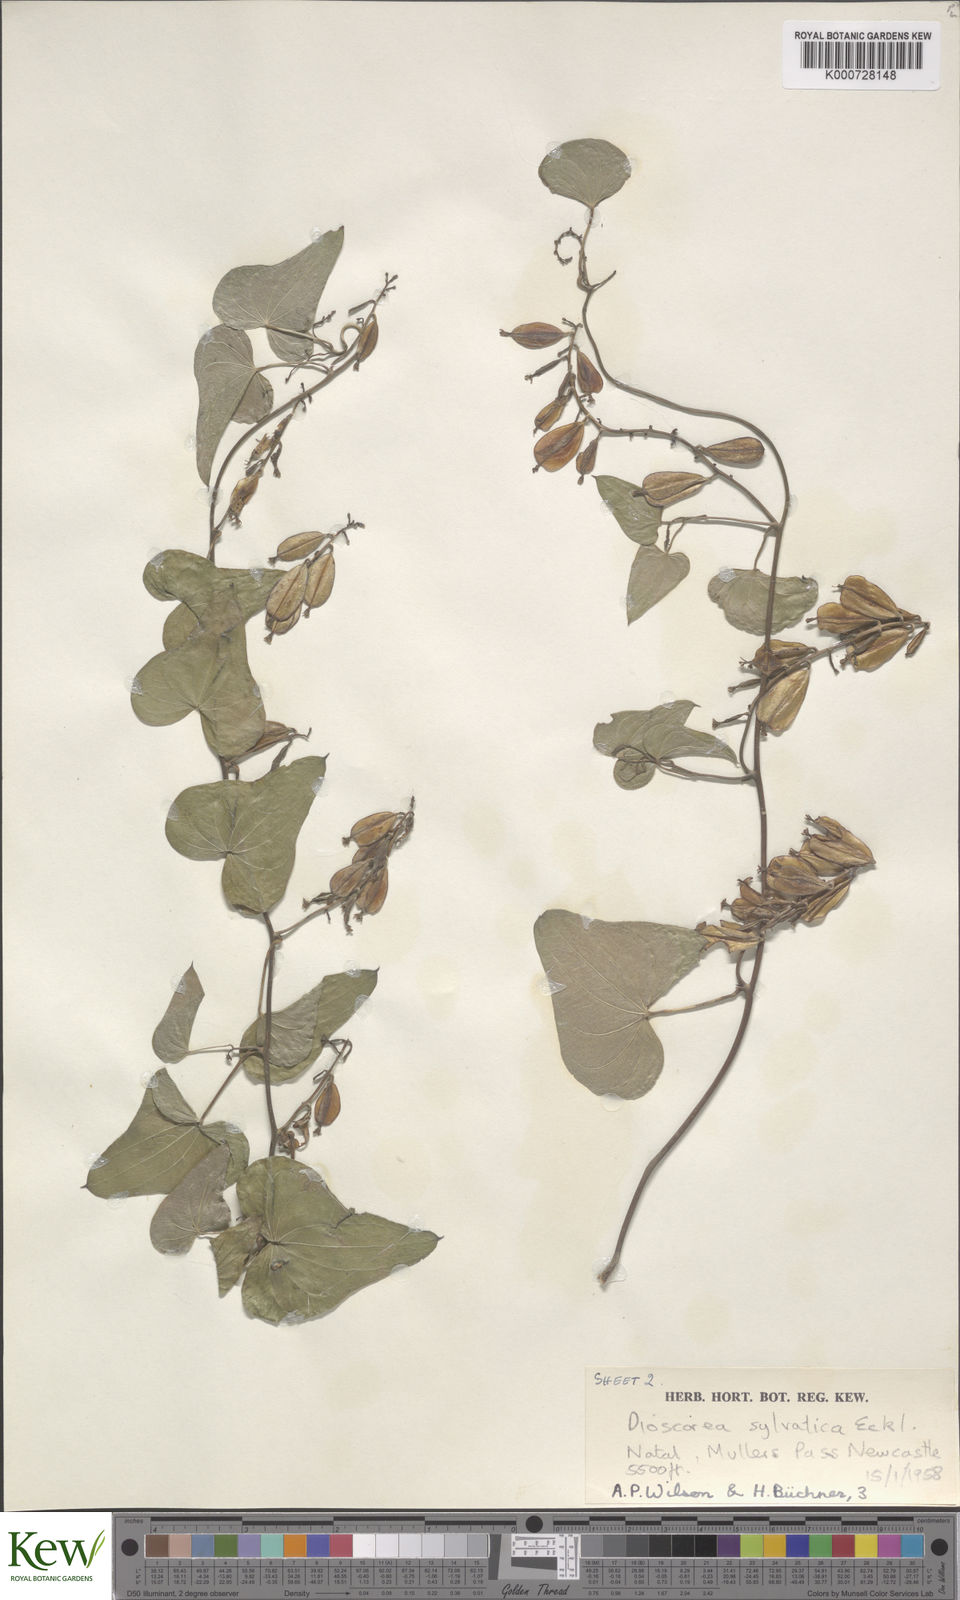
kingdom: Plantae
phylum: Tracheophyta
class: Liliopsida
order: Dioscoreales
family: Dioscoreaceae
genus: Dioscorea
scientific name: Dioscorea sylvatica
